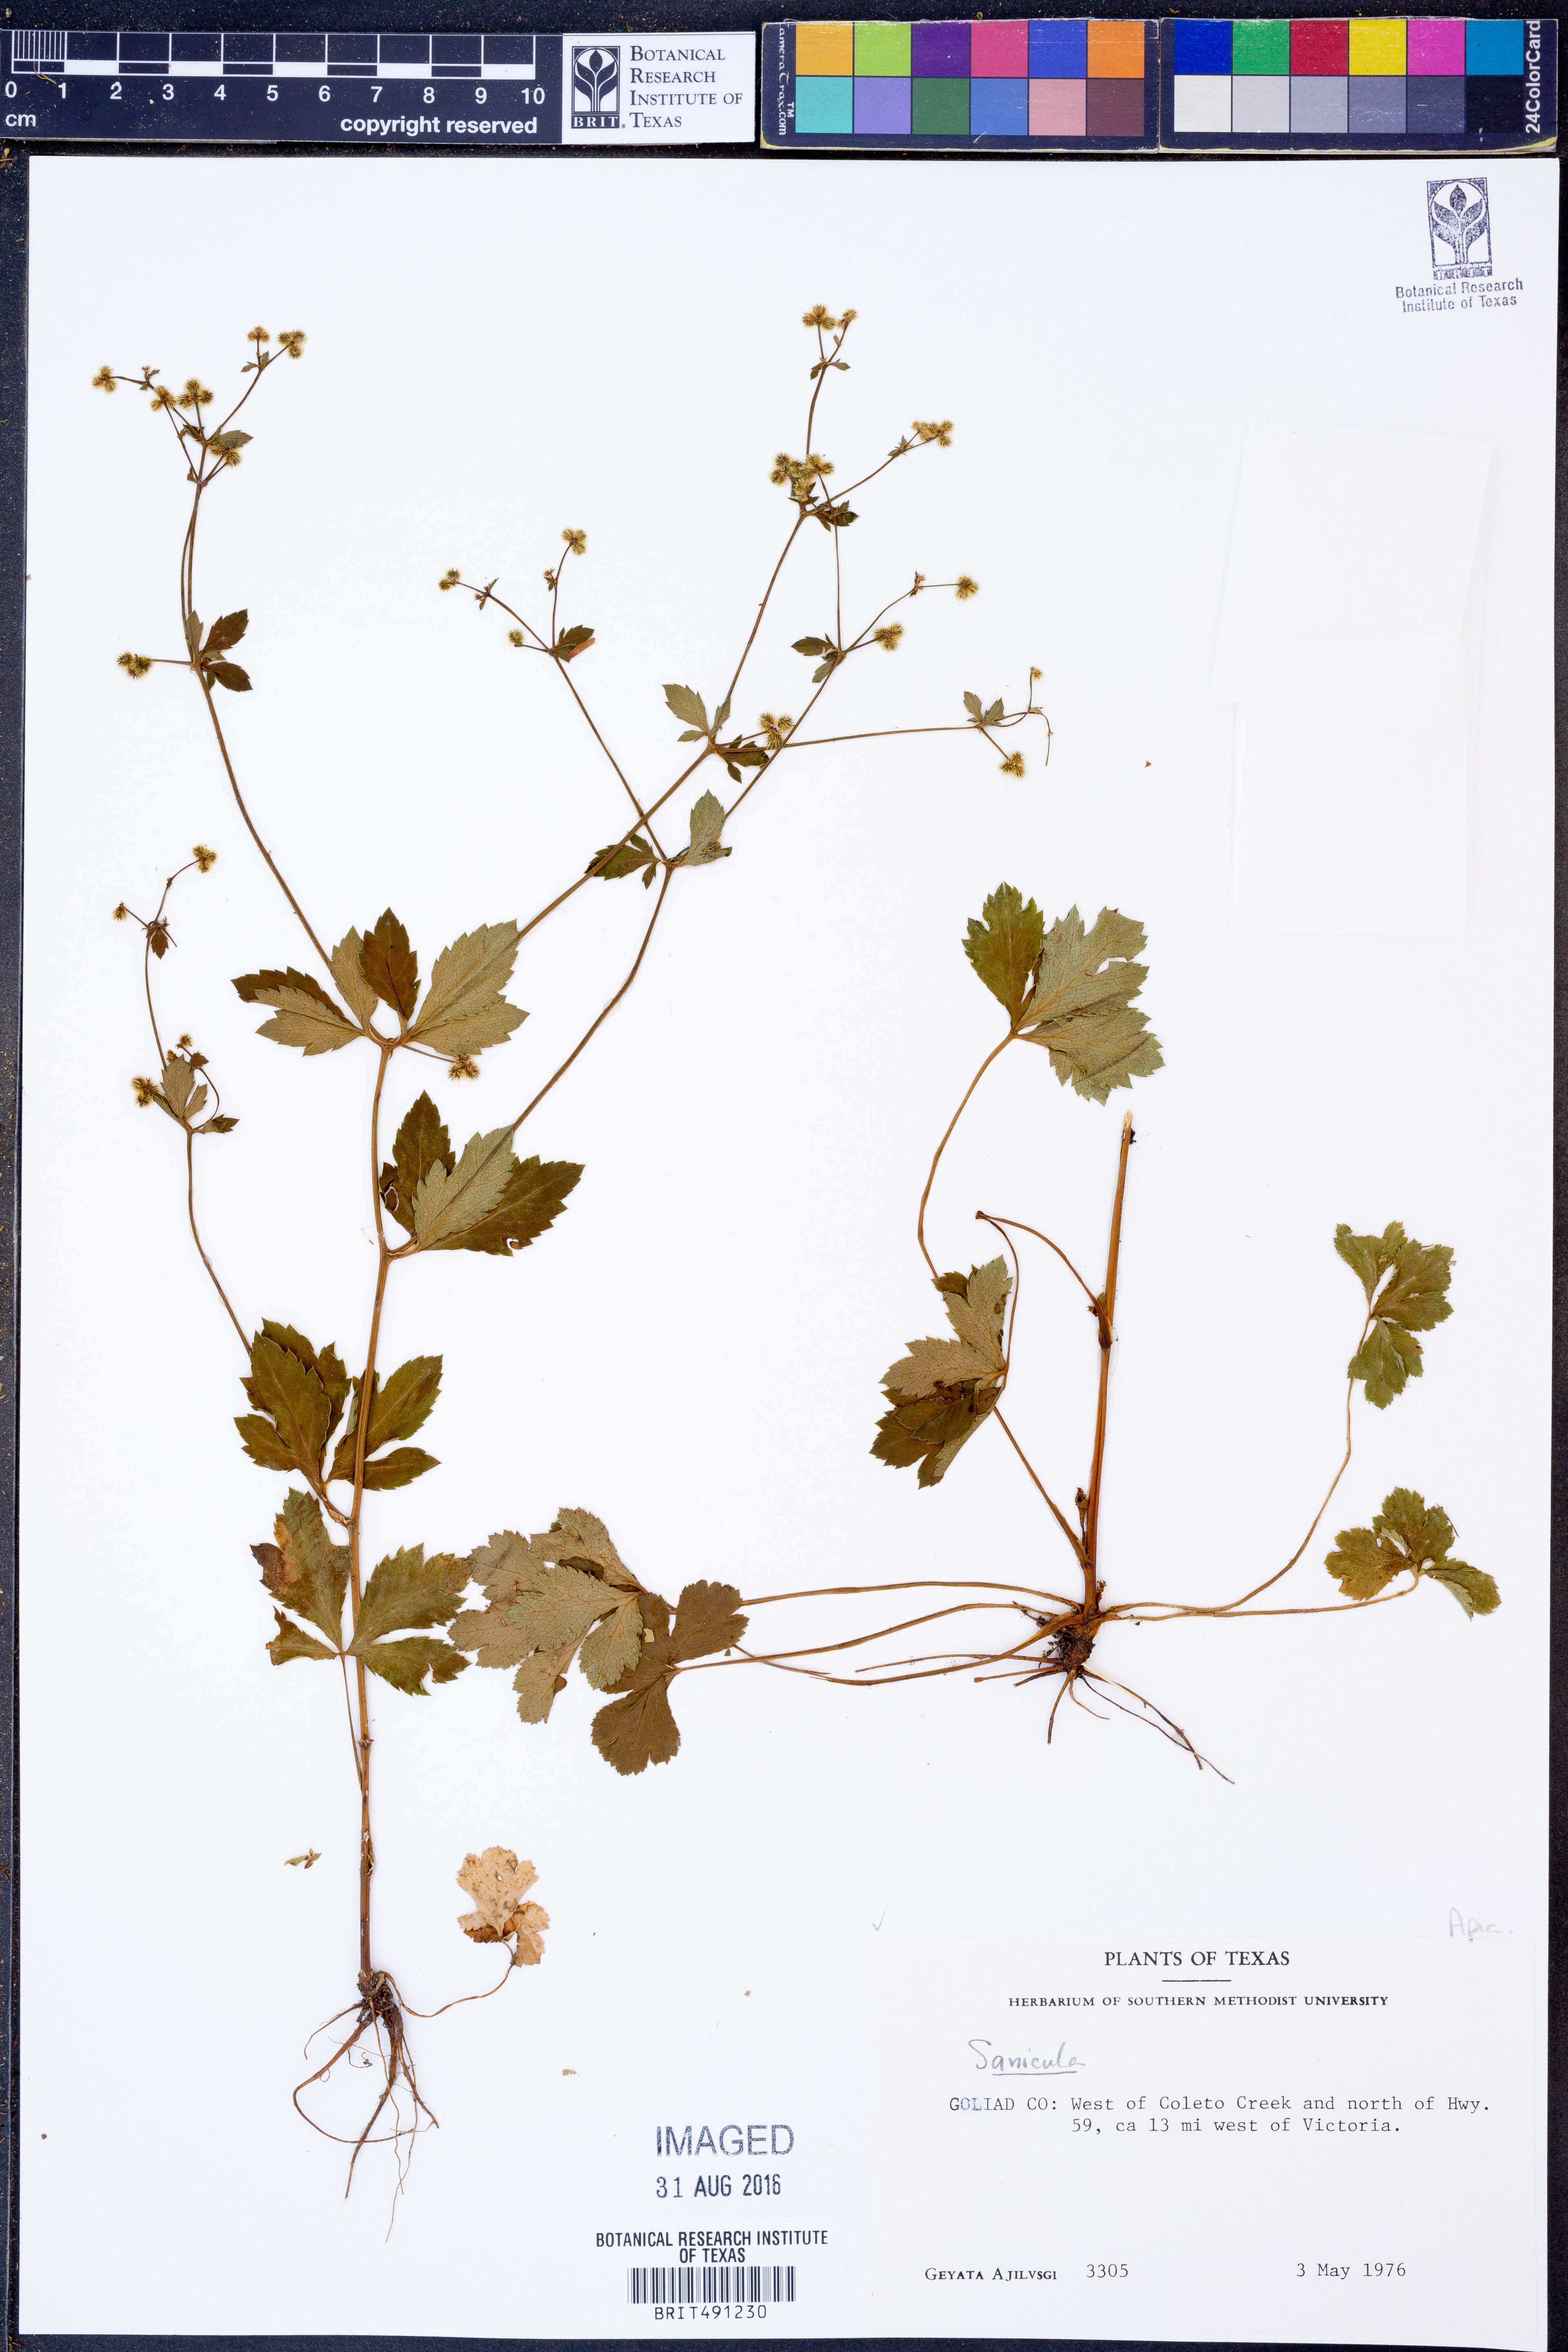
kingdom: Plantae
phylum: Tracheophyta
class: Magnoliopsida
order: Apiales
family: Apiaceae
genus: Sanicula
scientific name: Sanicula
